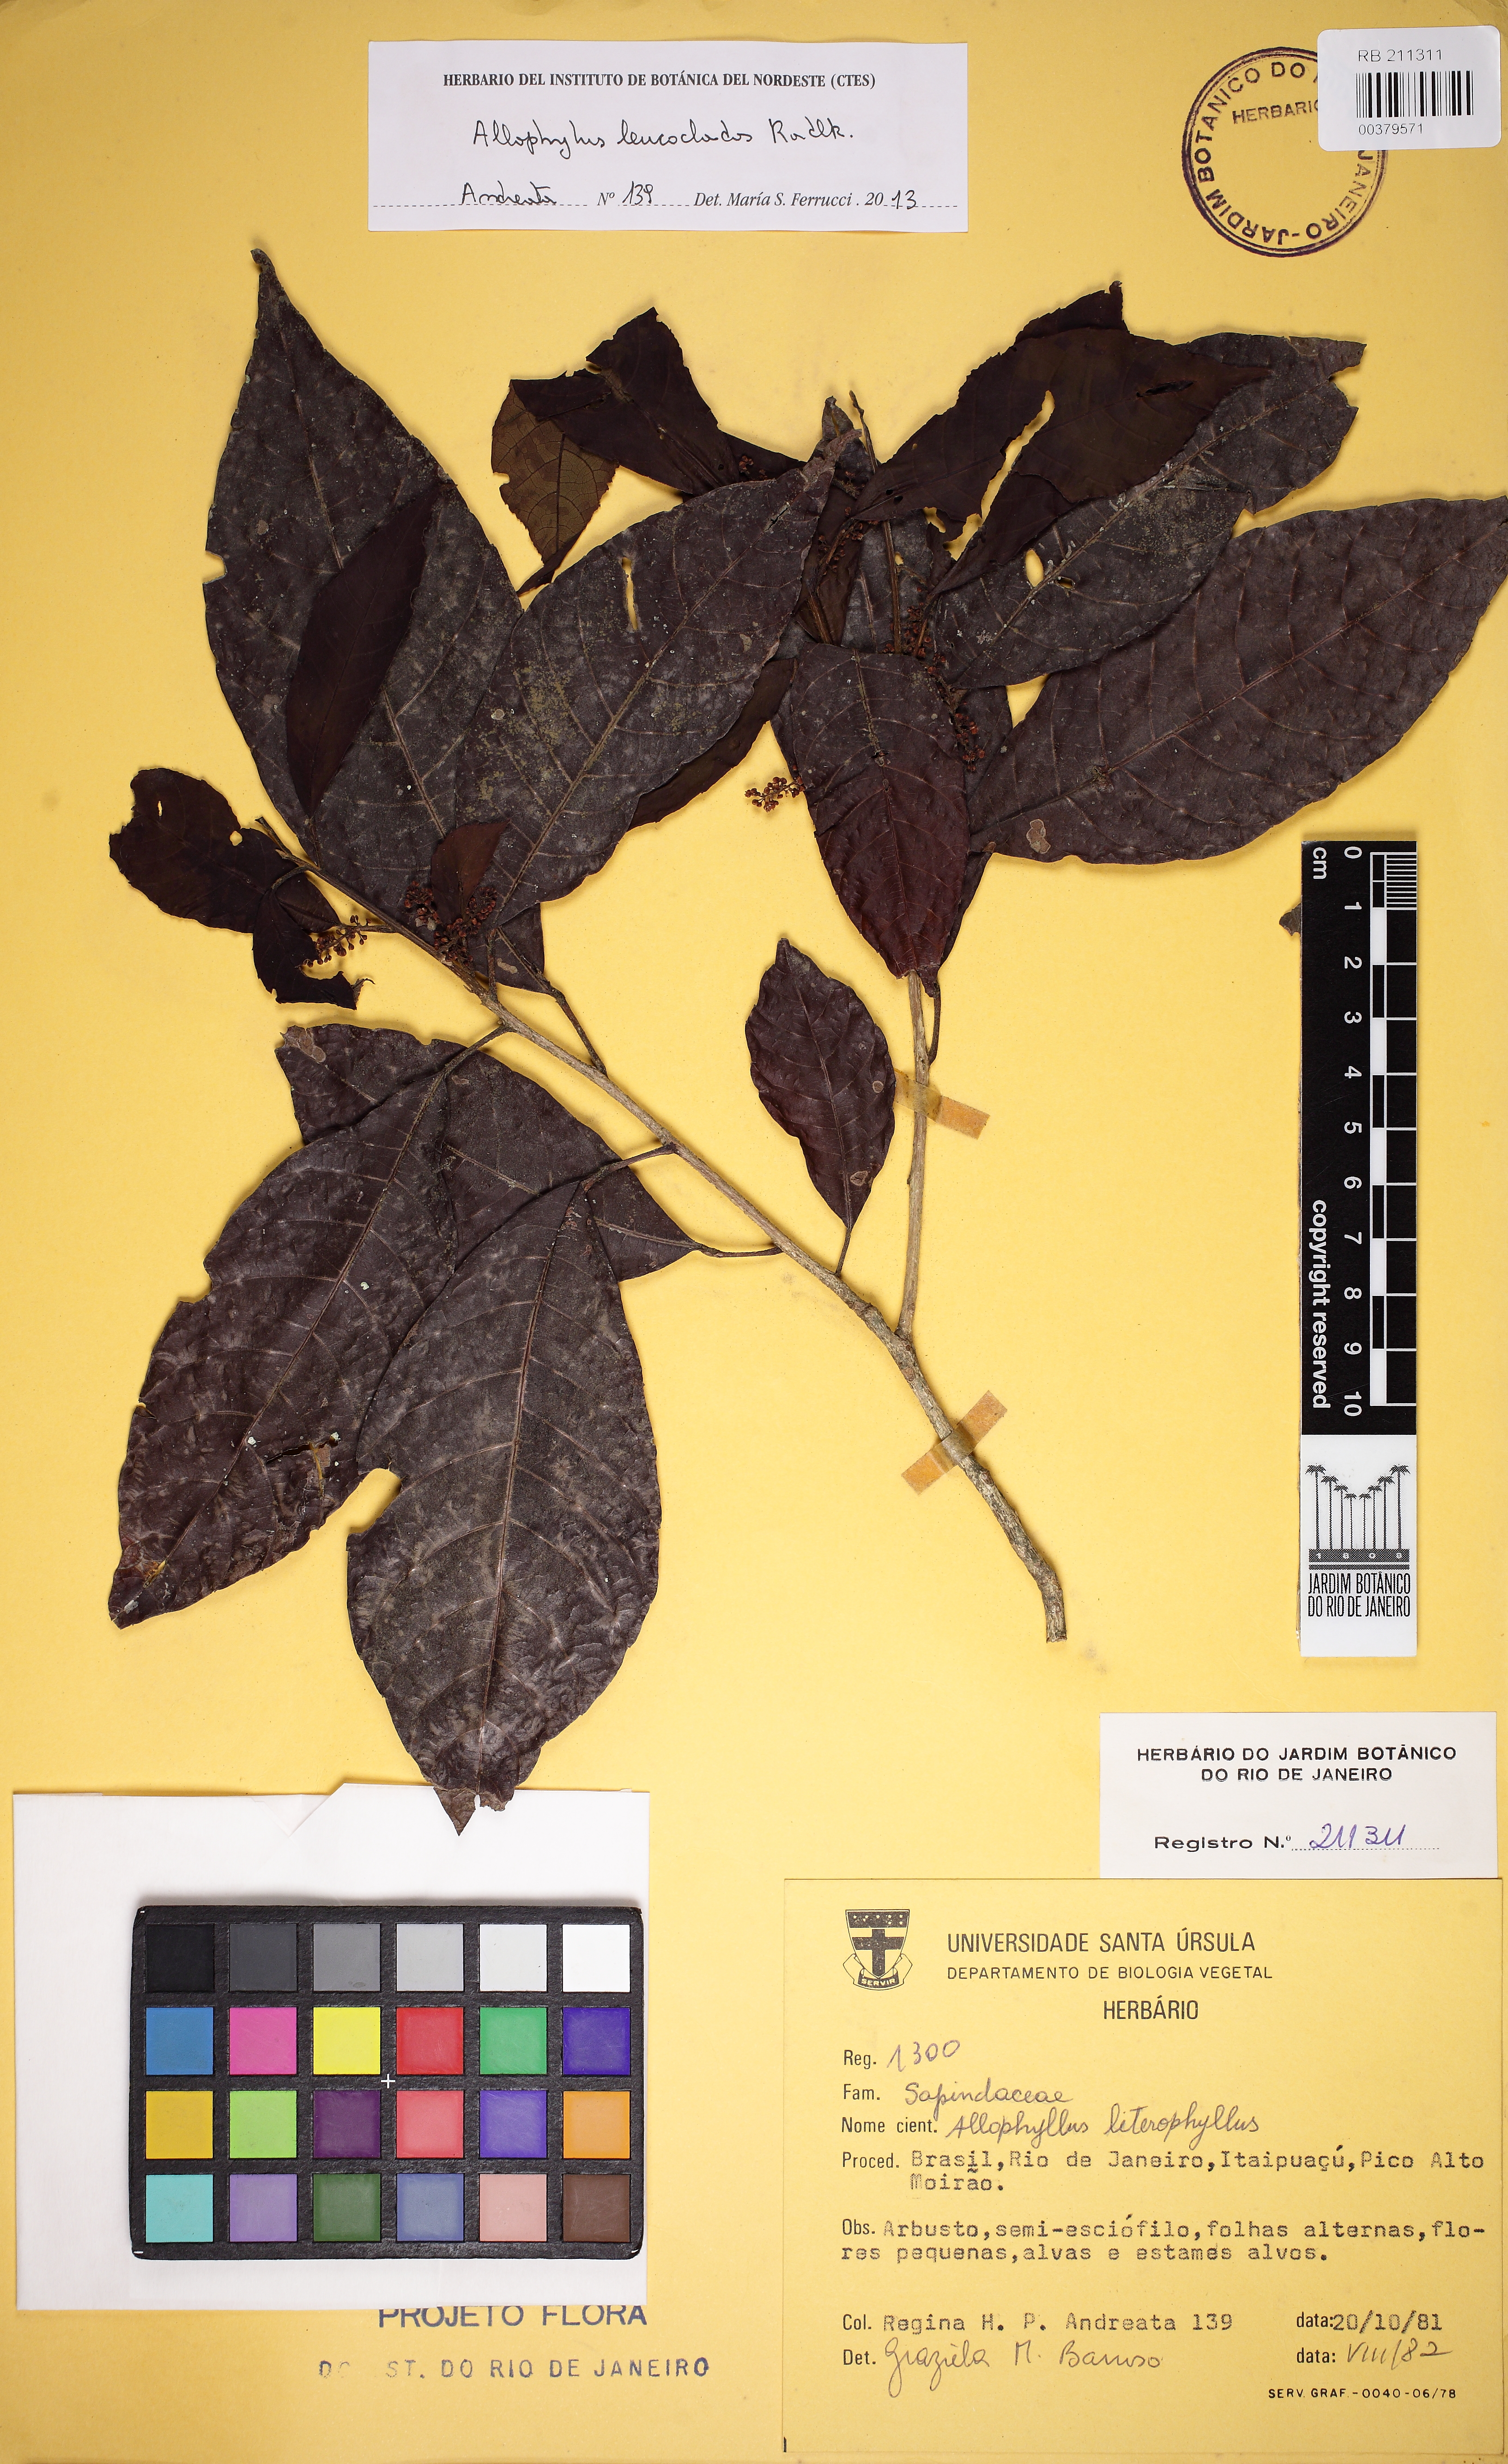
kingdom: Plantae
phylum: Tracheophyta
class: Magnoliopsida
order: Sapindales
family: Sapindaceae
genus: Allophylus
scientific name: Allophylus leucoclados
